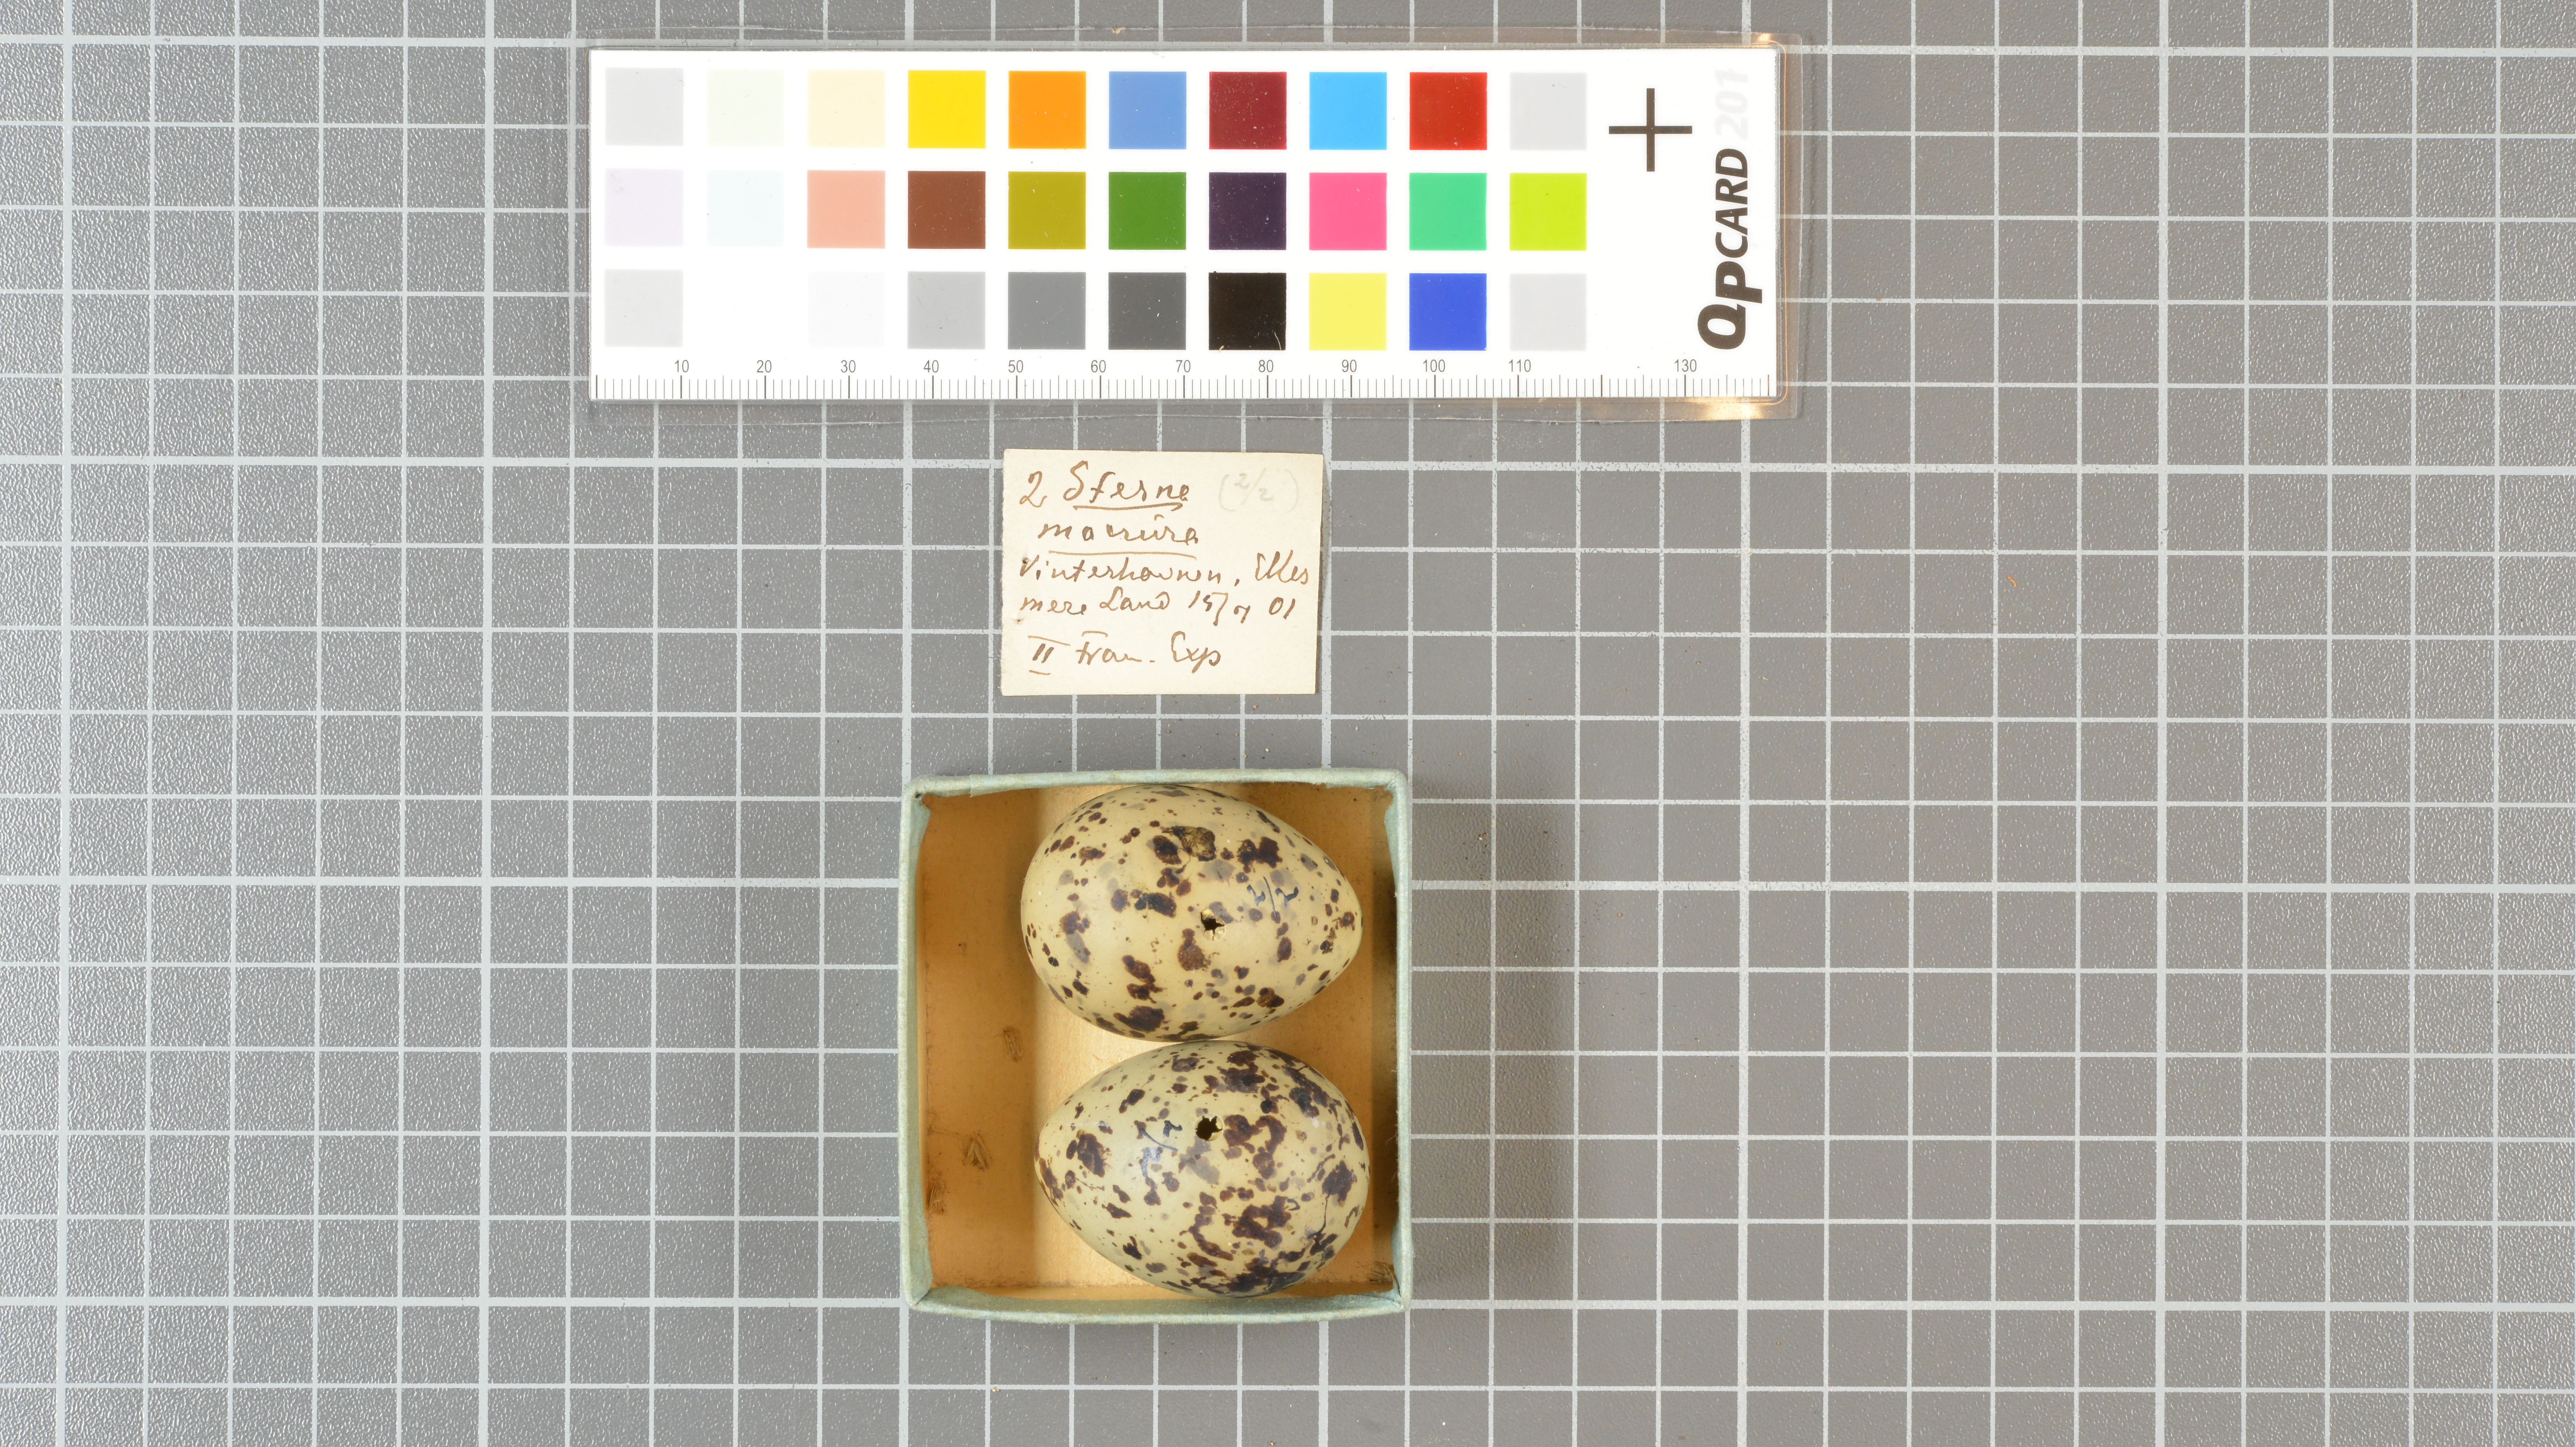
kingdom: Animalia
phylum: Chordata
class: Aves
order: Charadriiformes
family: Laridae
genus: Sterna
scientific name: Sterna paradisaea
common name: Arctic tern
